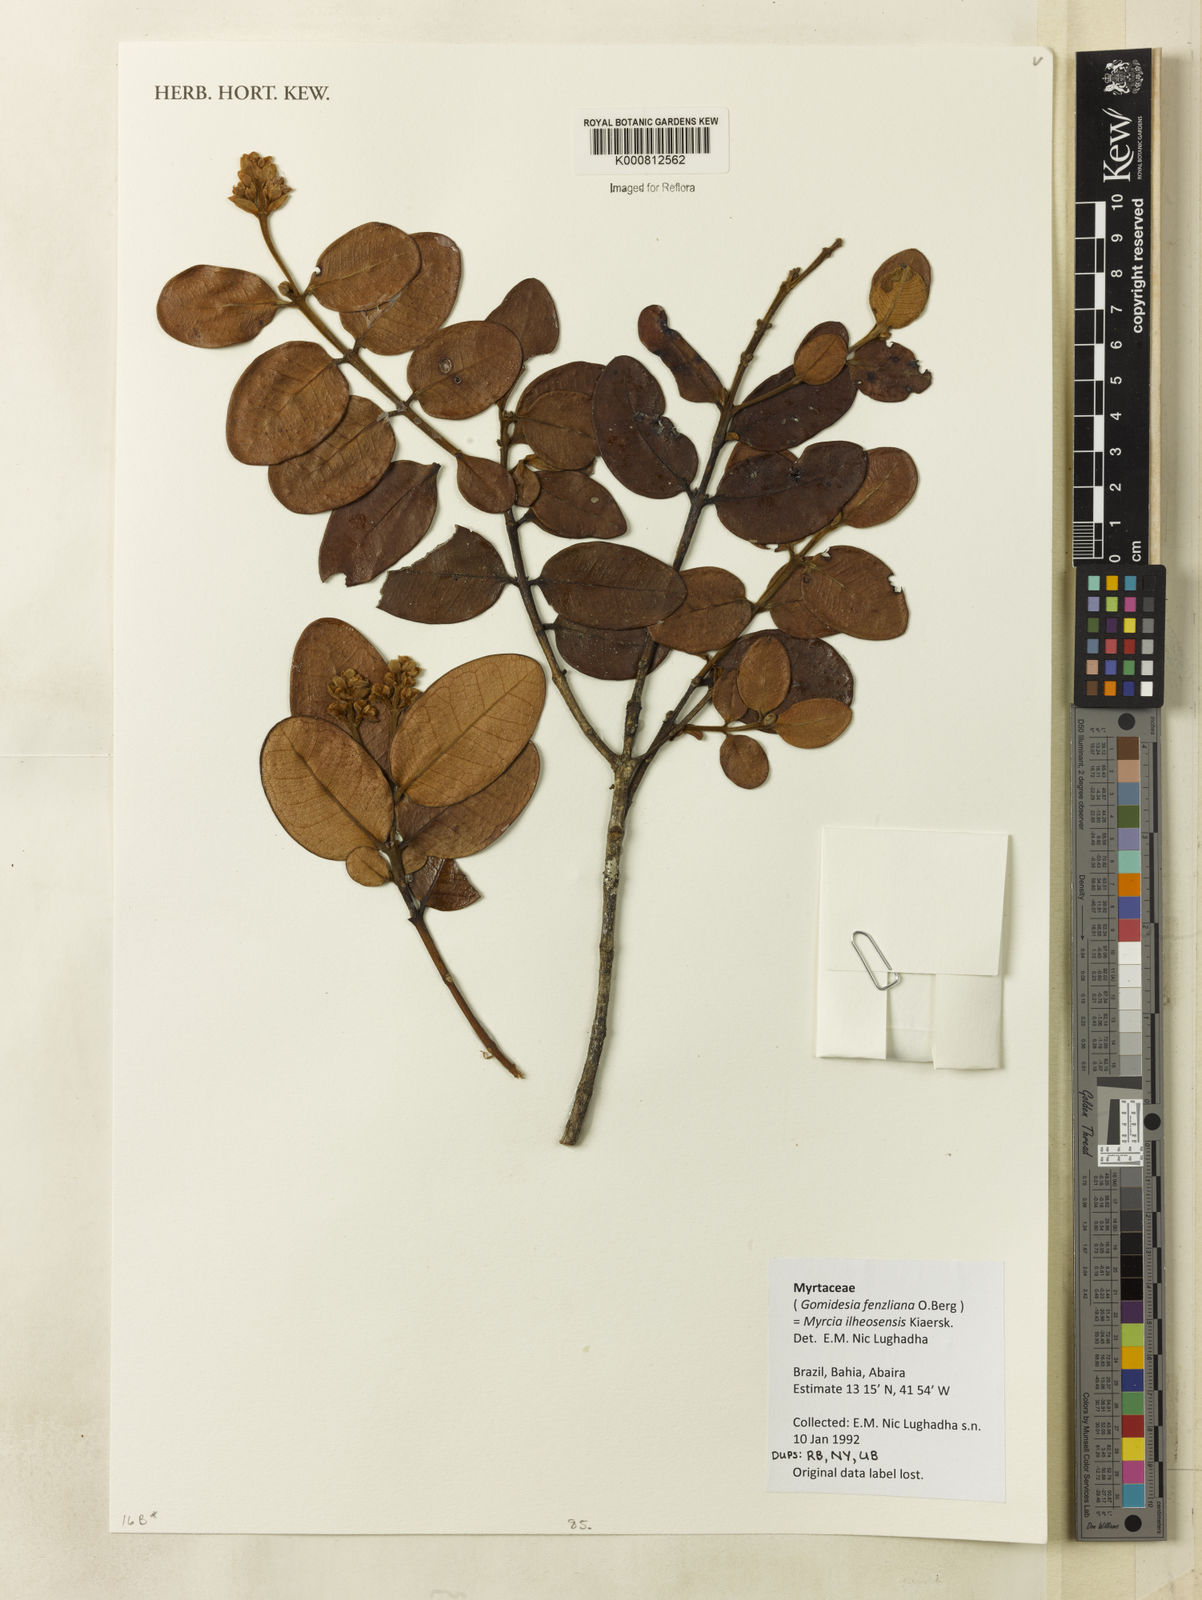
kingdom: Plantae
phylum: Tracheophyta
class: Magnoliopsida
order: Myrtales
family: Myrtaceae
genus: Myrcia
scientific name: Myrcia ilheosensis
